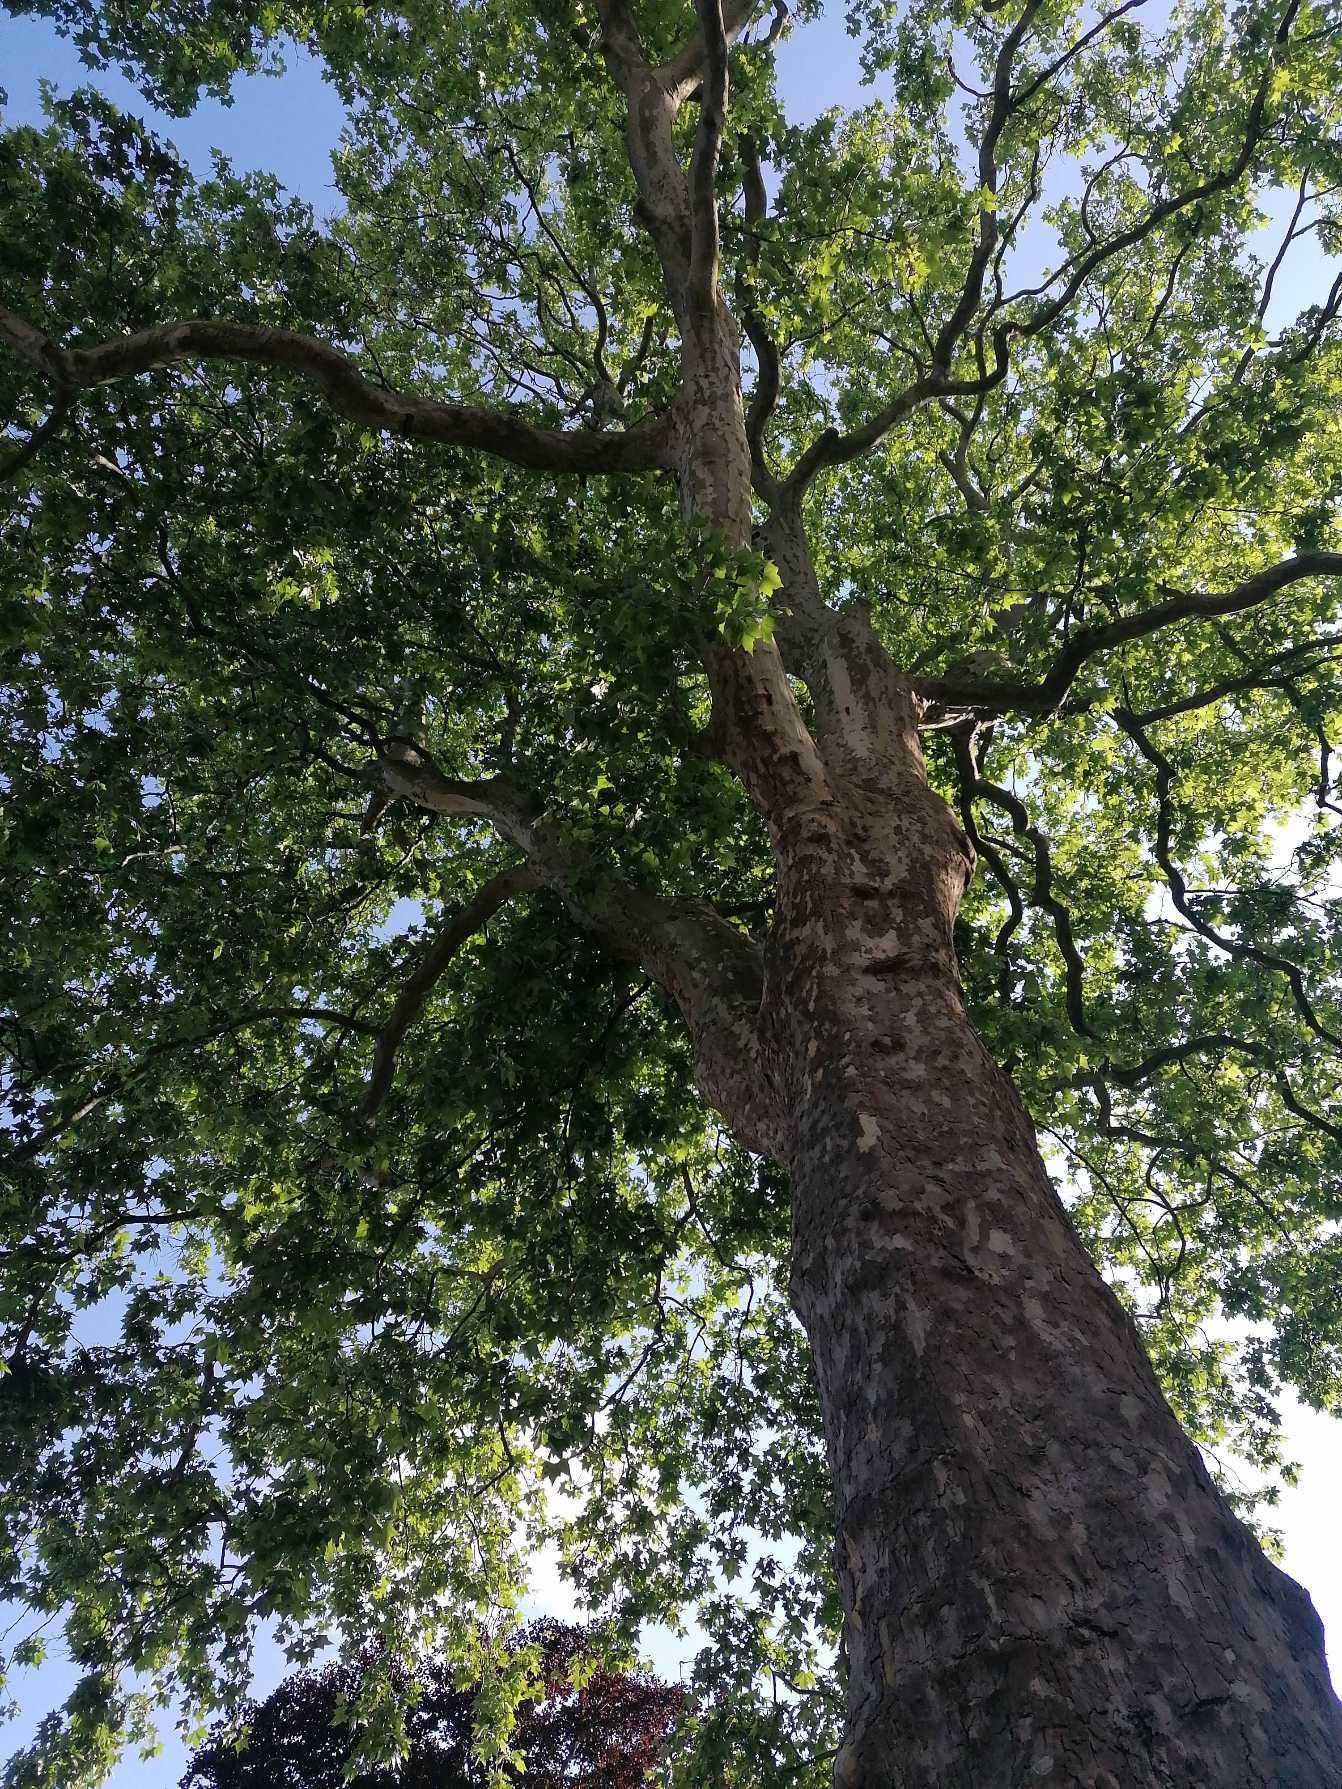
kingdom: Plantae
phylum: Tracheophyta
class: Magnoliopsida
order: Sapindales
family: Sapindaceae
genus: Acer
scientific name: Acer platanoides
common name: Spids-løn
